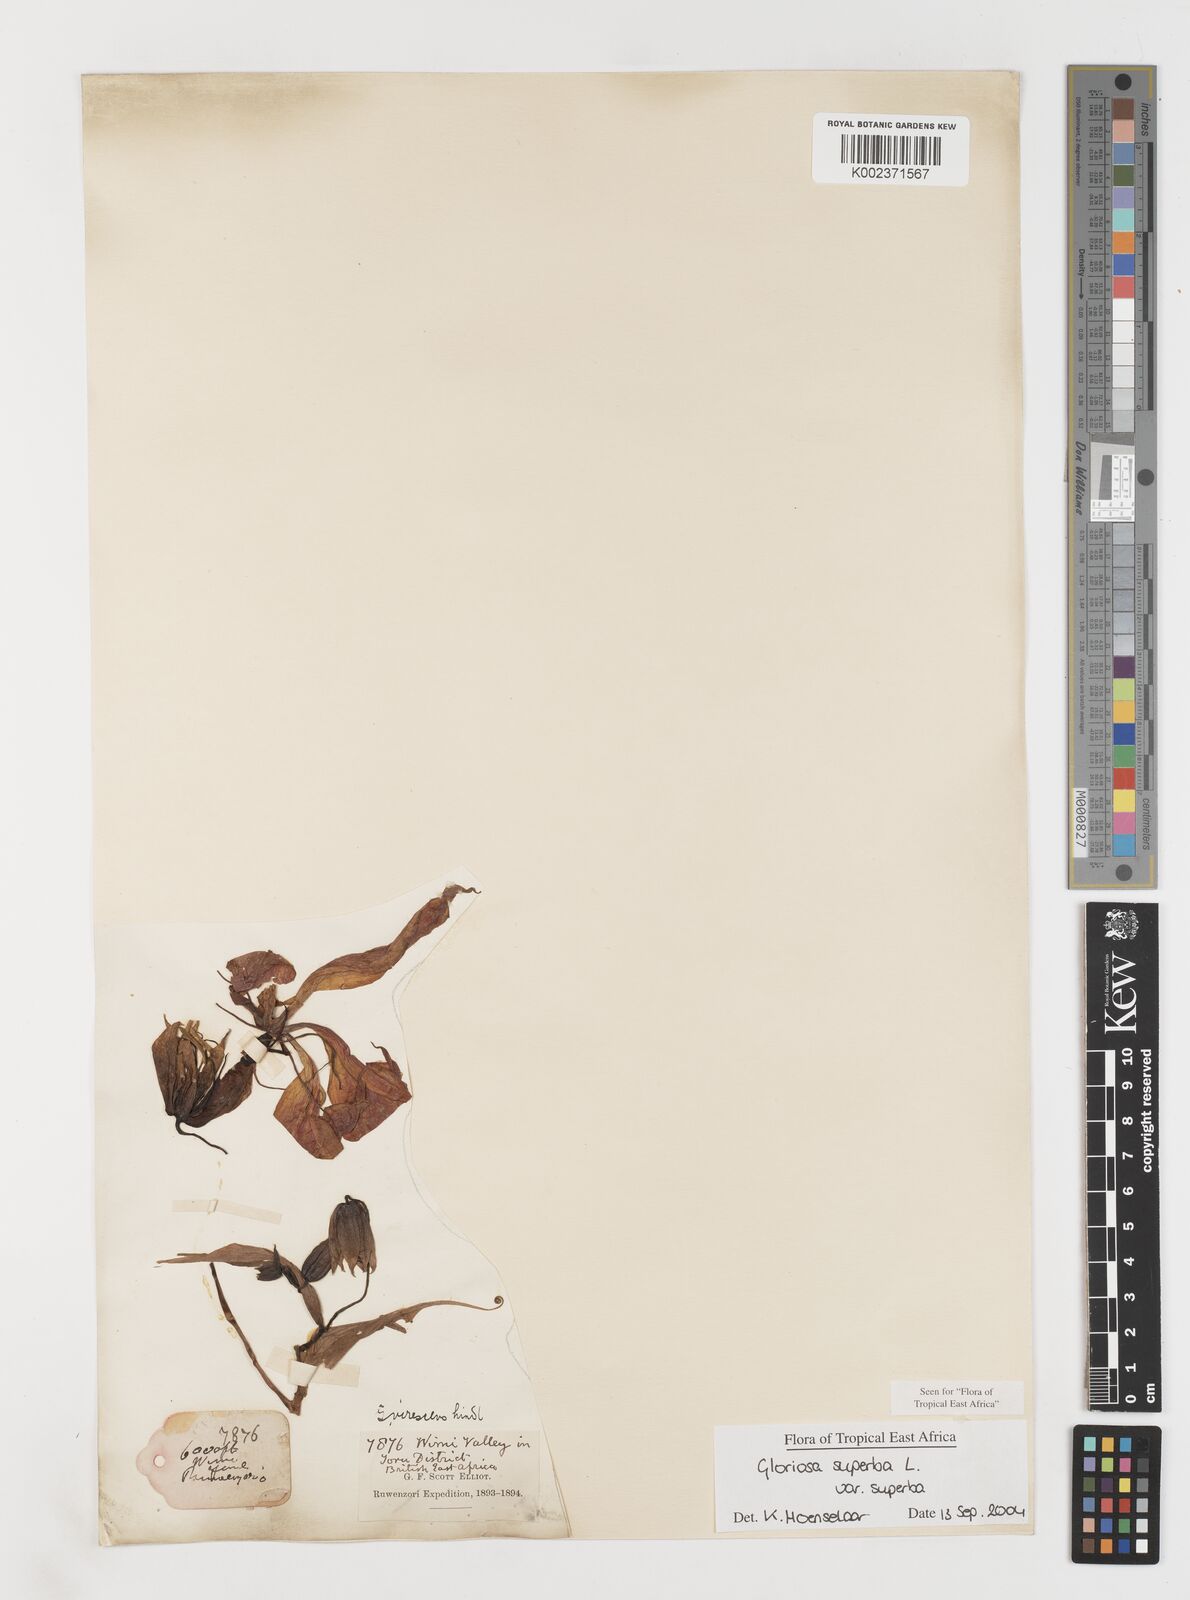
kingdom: Plantae
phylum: Tracheophyta
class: Liliopsida
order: Liliales
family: Colchicaceae
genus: Gloriosa
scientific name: Gloriosa simplex
